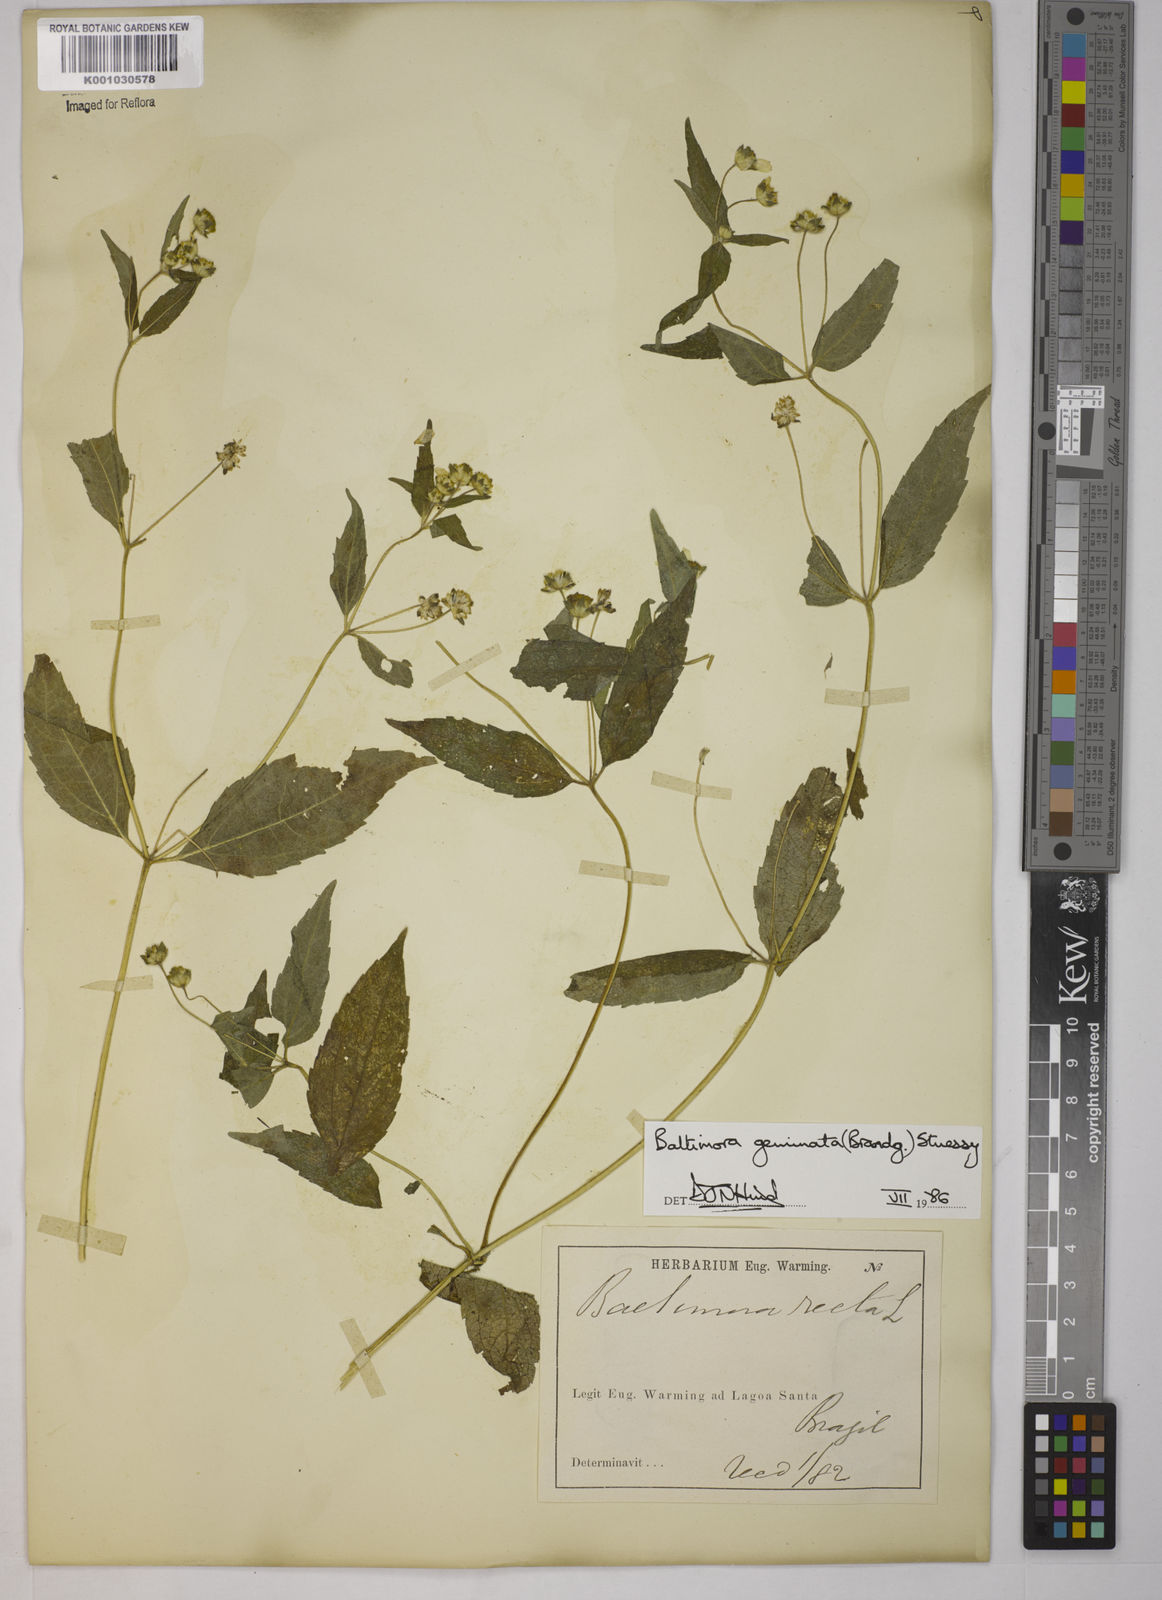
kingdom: Plantae
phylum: Tracheophyta
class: Magnoliopsida
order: Asterales
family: Asteraceae
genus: Baltimora
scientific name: Baltimora geminata
